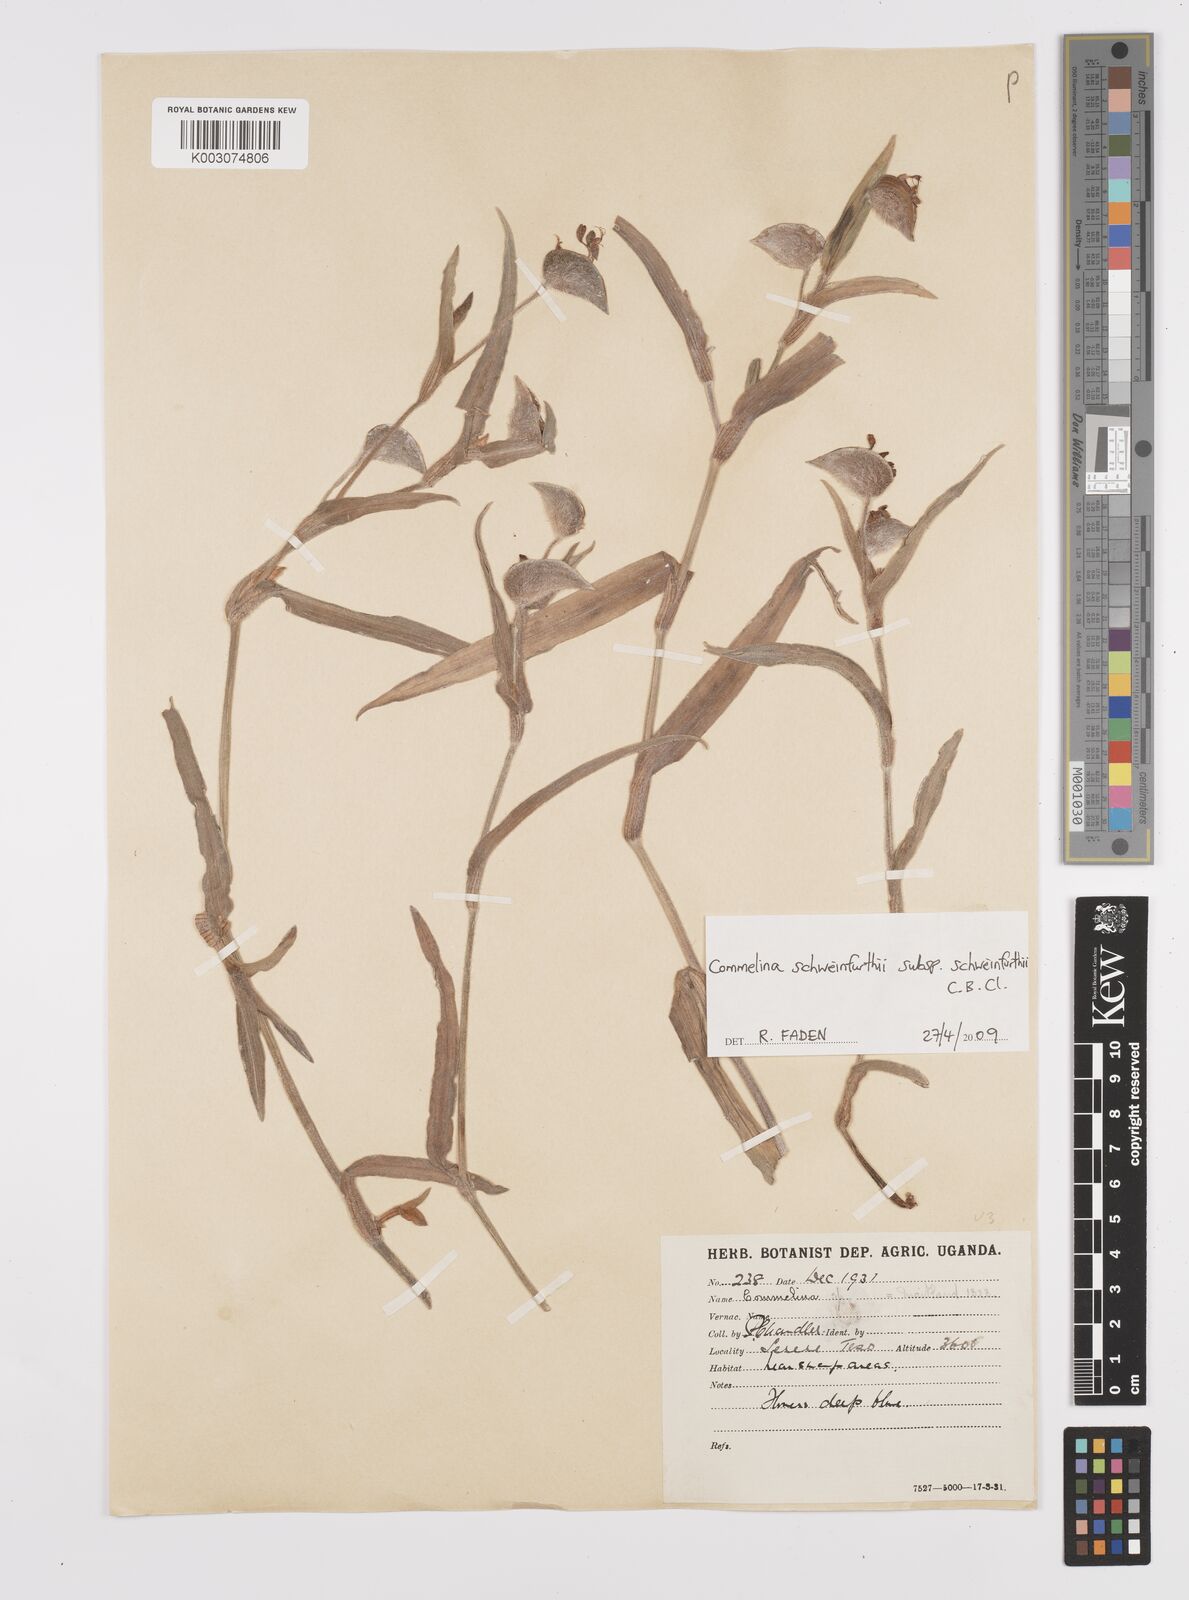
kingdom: Plantae
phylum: Tracheophyta
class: Liliopsida
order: Commelinales
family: Commelinaceae
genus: Commelina
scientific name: Commelina schweinfurthii
